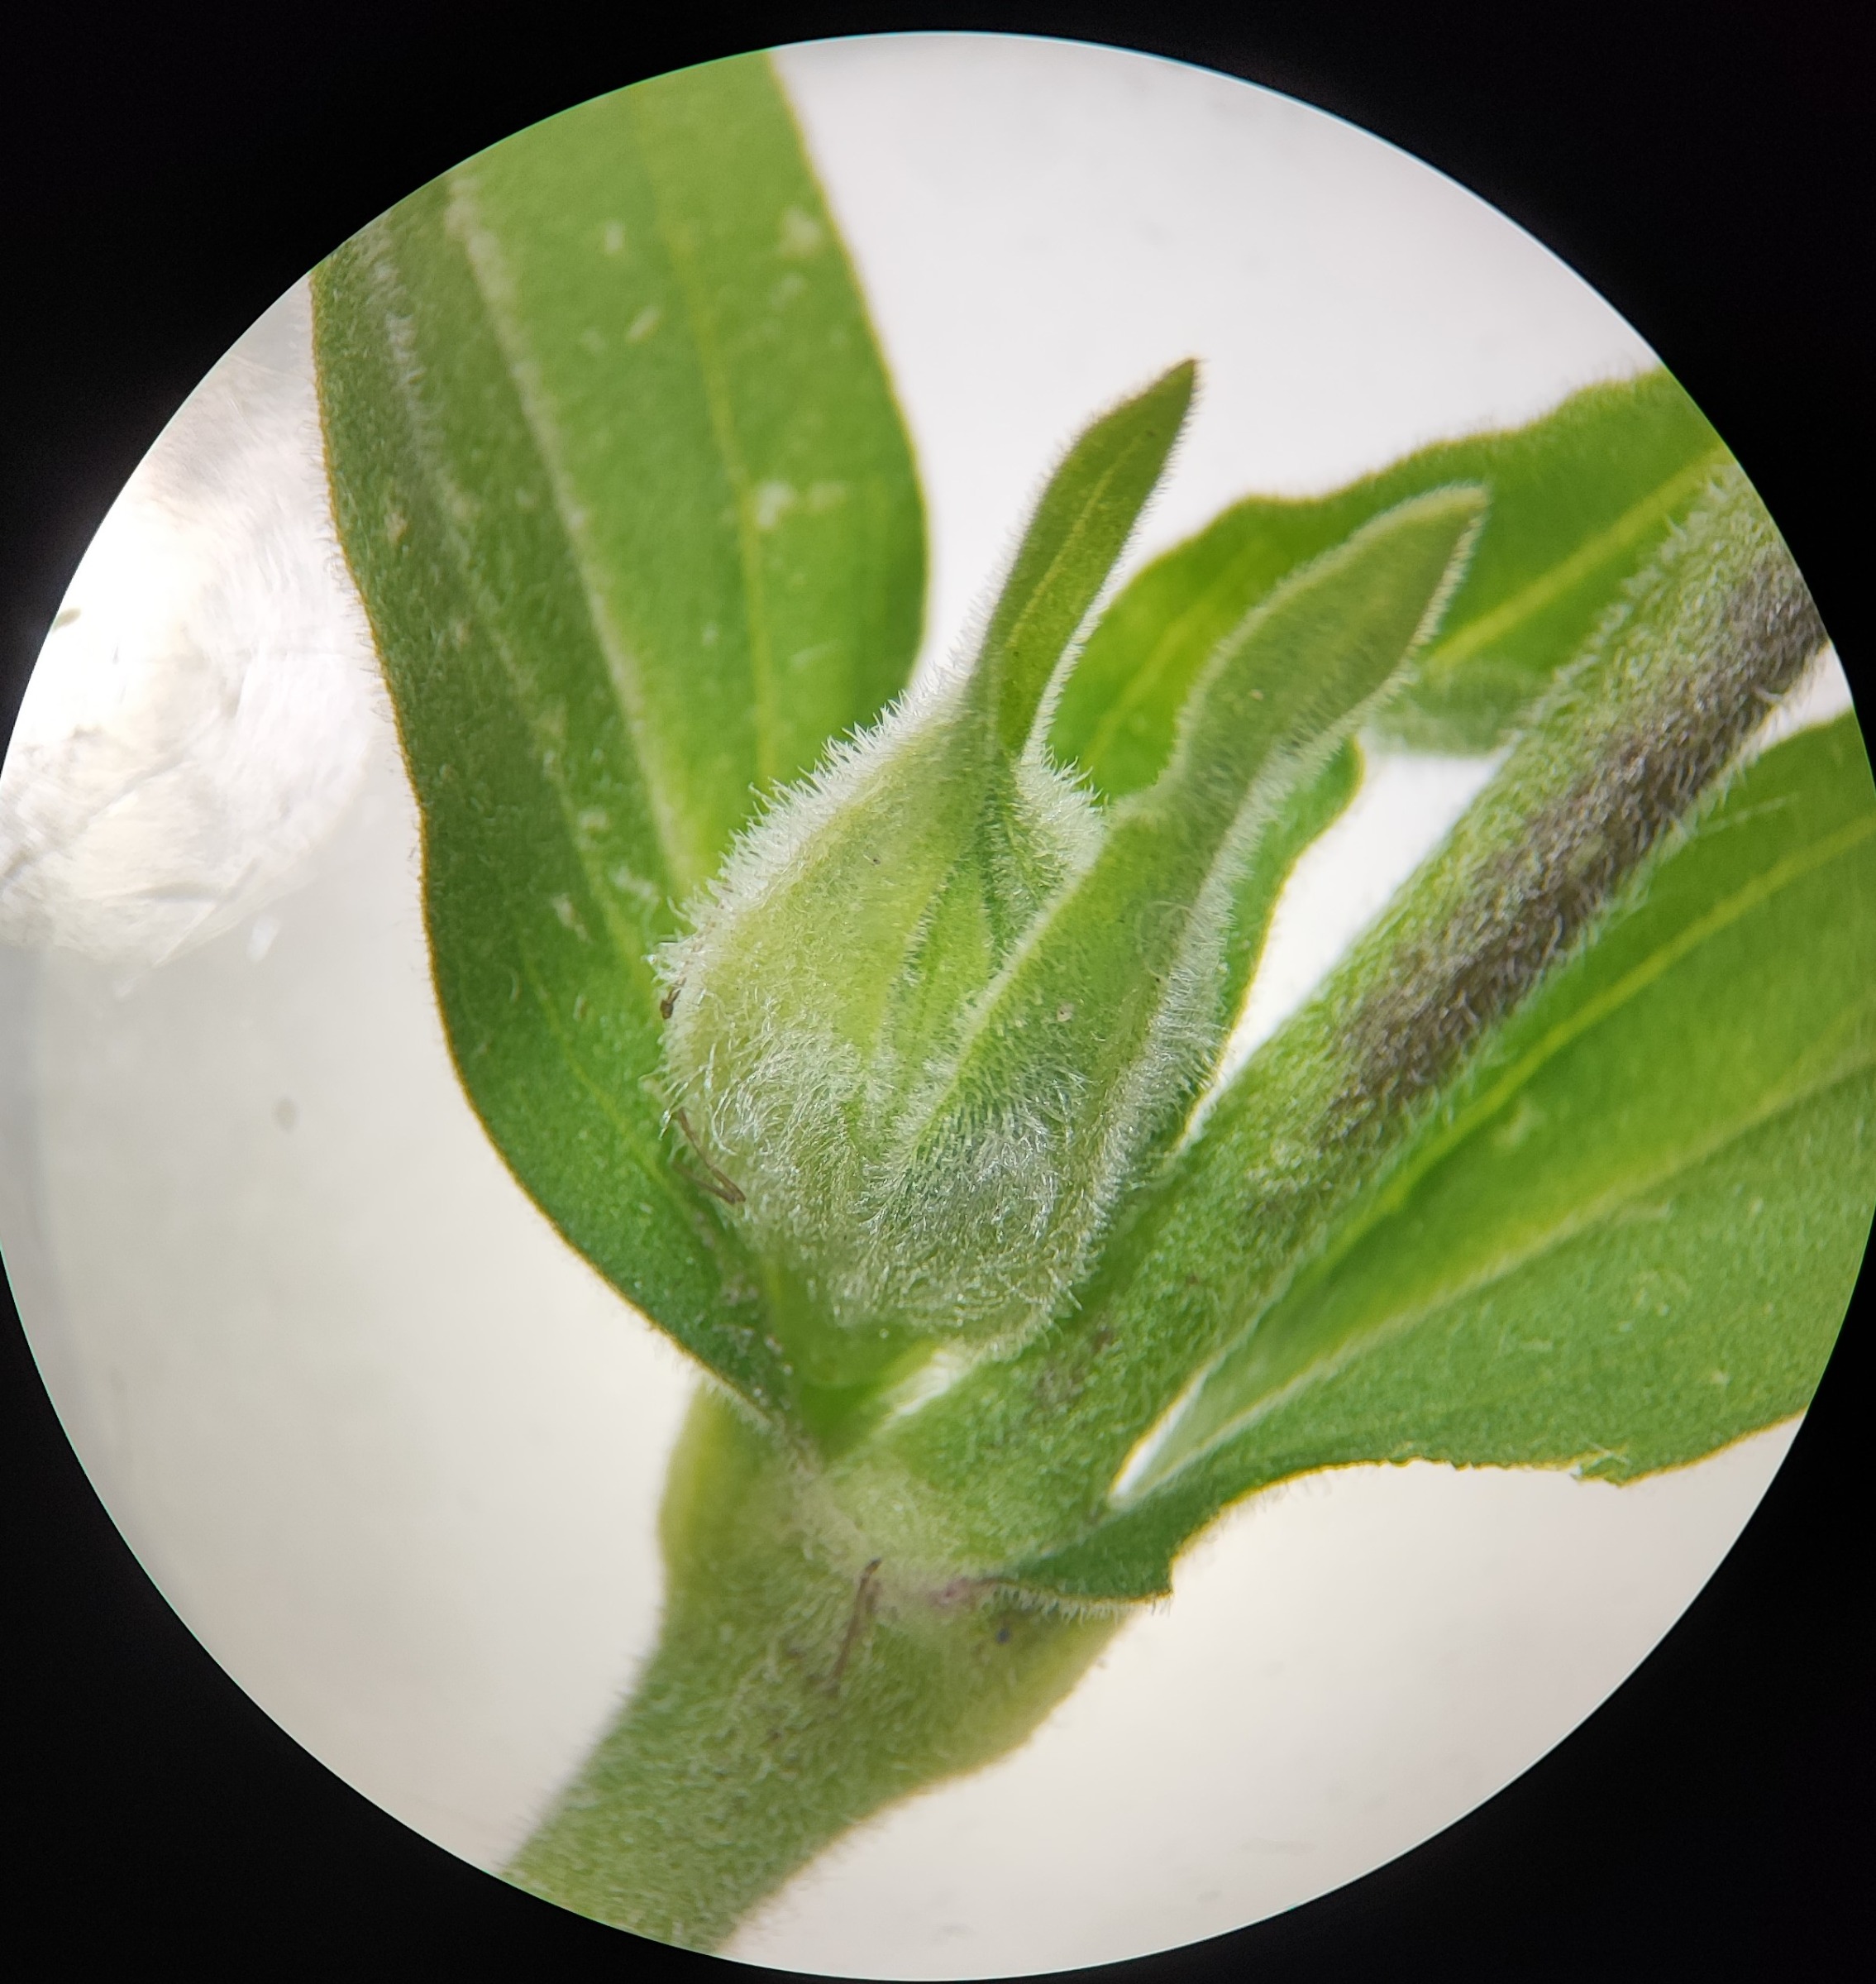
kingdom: Animalia
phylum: Arthropoda
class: Insecta
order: Diptera
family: Cecidomyiidae
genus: Neomikiella
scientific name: Neomikiella lychnidis
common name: Oldingegalmyg
